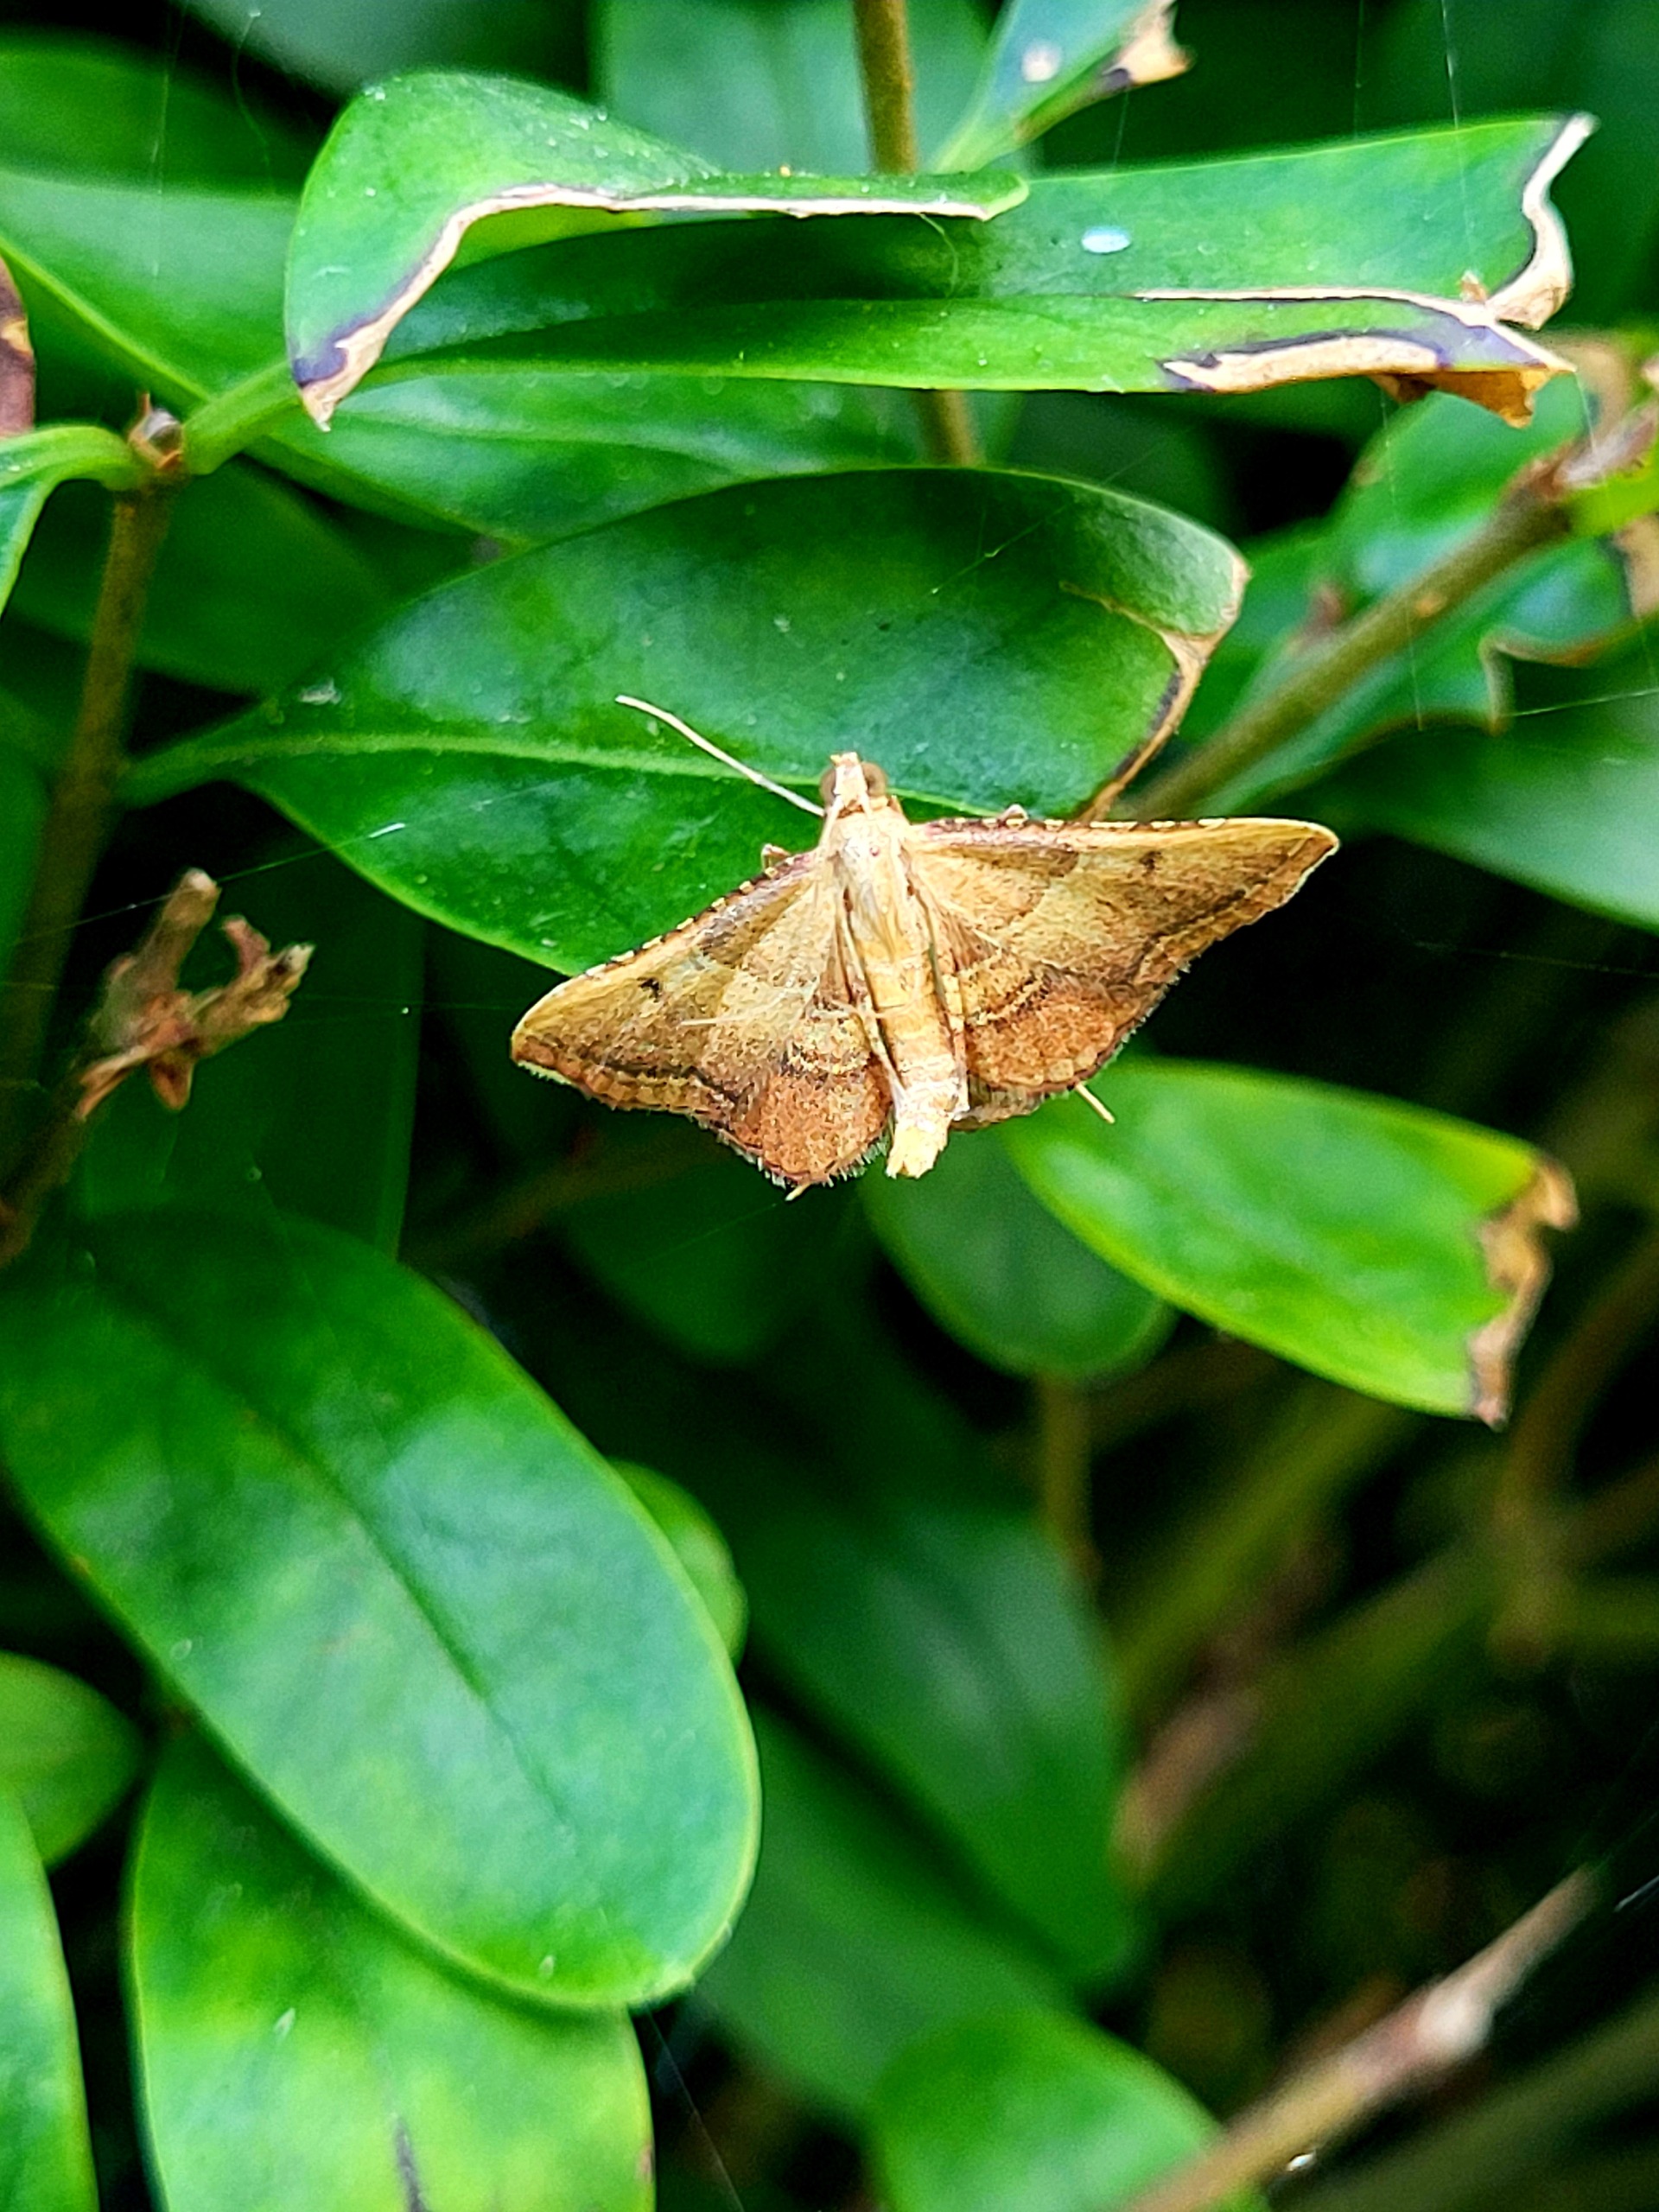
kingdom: Animalia
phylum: Arthropoda
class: Insecta
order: Lepidoptera
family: Pyralidae
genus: Endotricha
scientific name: Endotricha flammealis
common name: Løvkrathalvmøl
